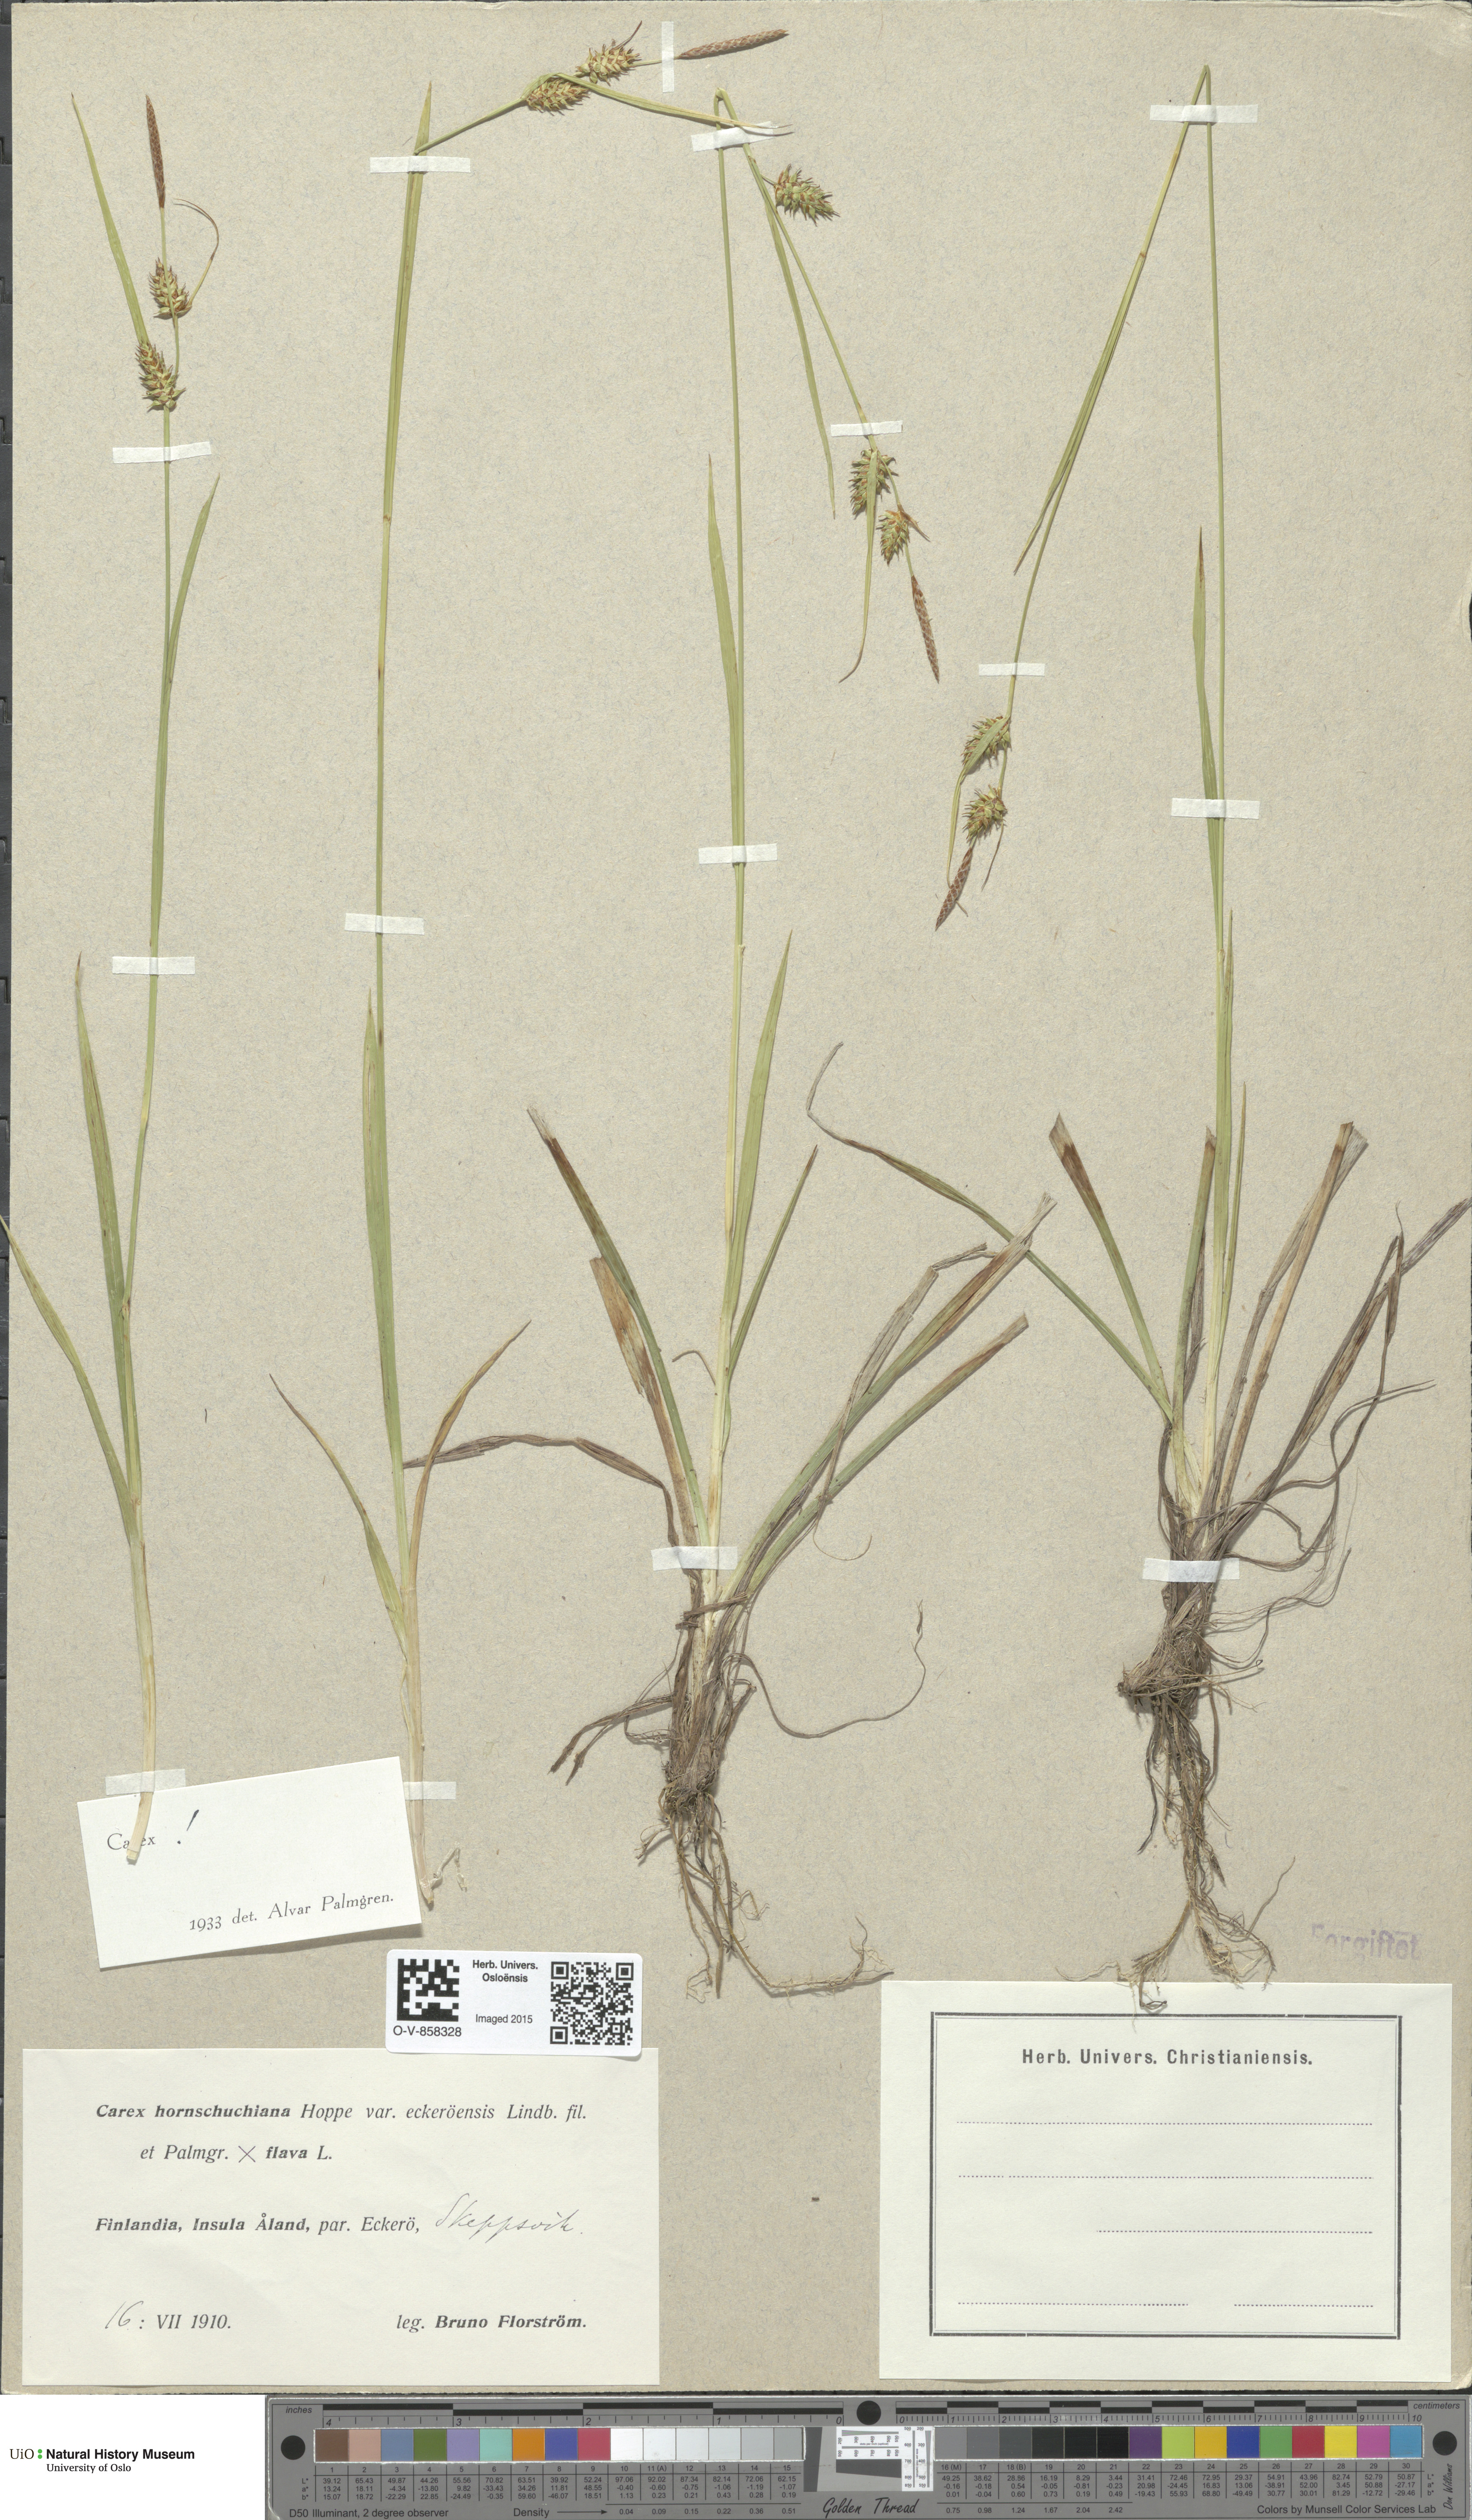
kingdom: Plantae
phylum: Tracheophyta
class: Liliopsida
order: Poales
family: Cyperaceae
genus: Carex
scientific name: Carex
